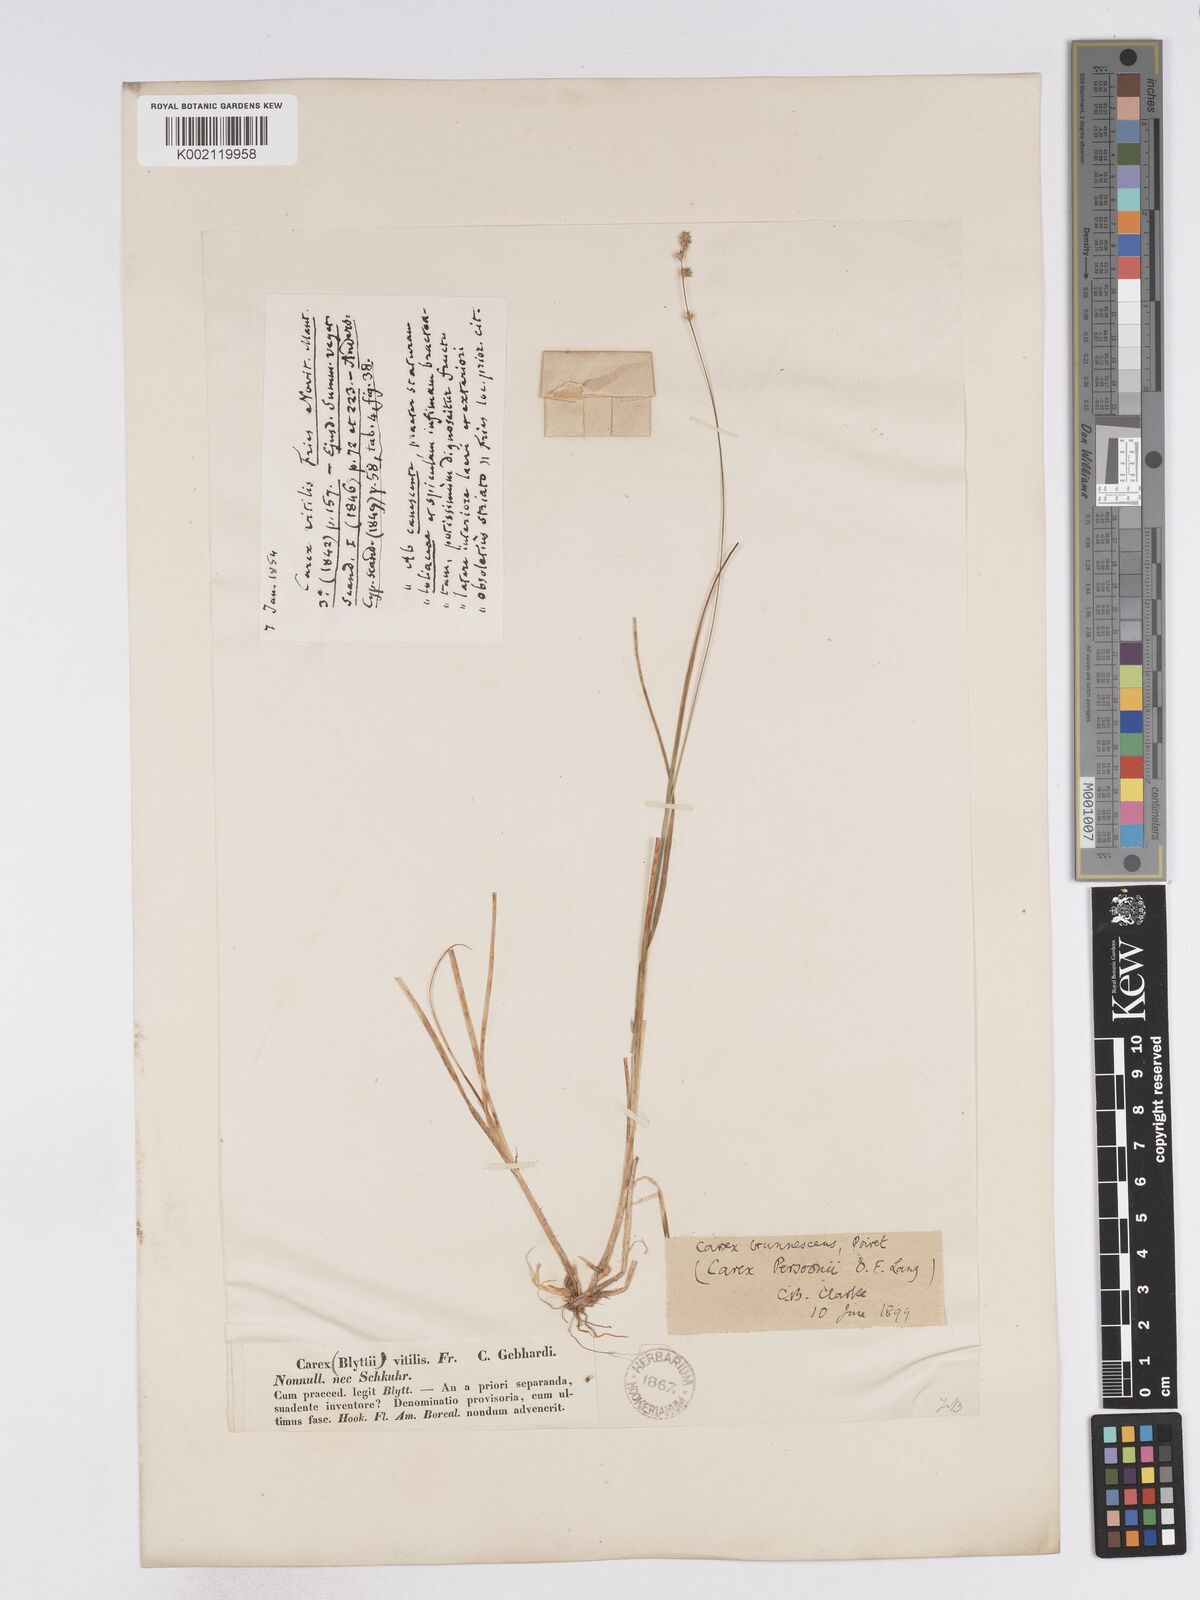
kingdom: Plantae
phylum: Tracheophyta
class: Liliopsida
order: Poales
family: Cyperaceae
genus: Carex
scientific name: Carex canescens
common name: White sedge
